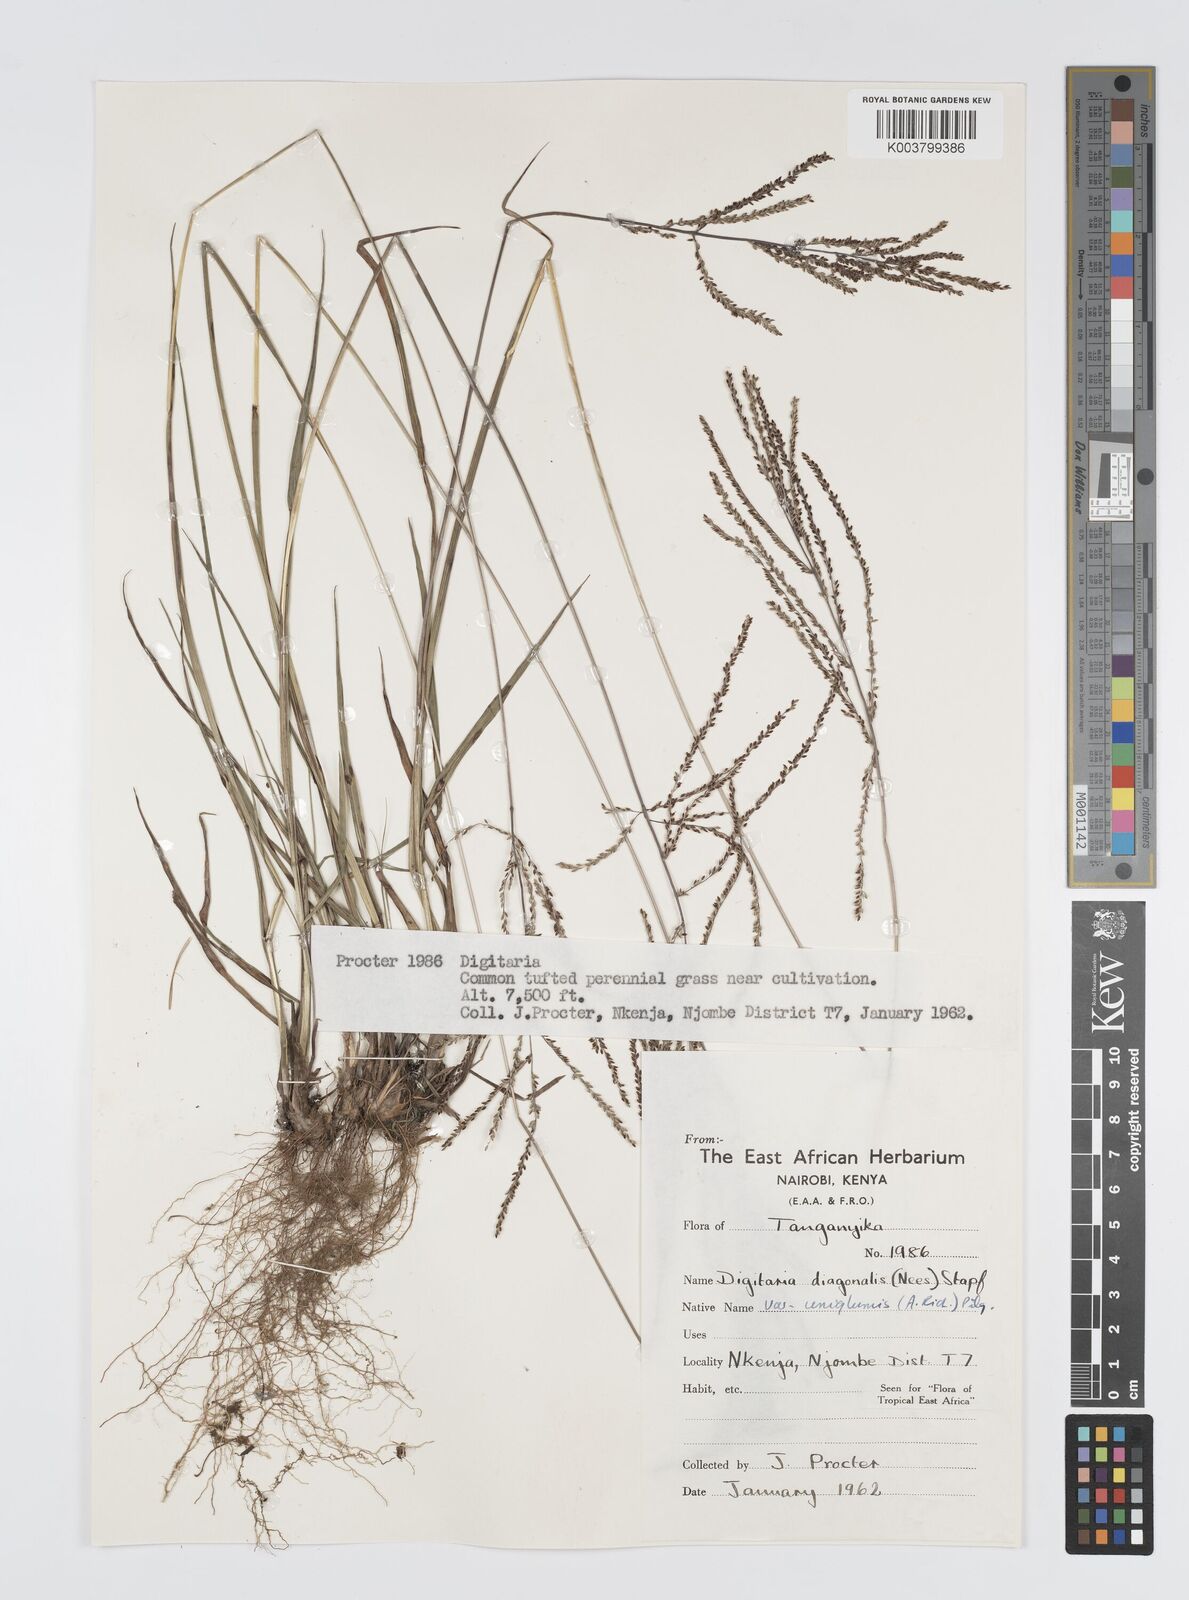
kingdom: Plantae
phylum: Tracheophyta
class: Liliopsida
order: Poales
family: Poaceae
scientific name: Poaceae
